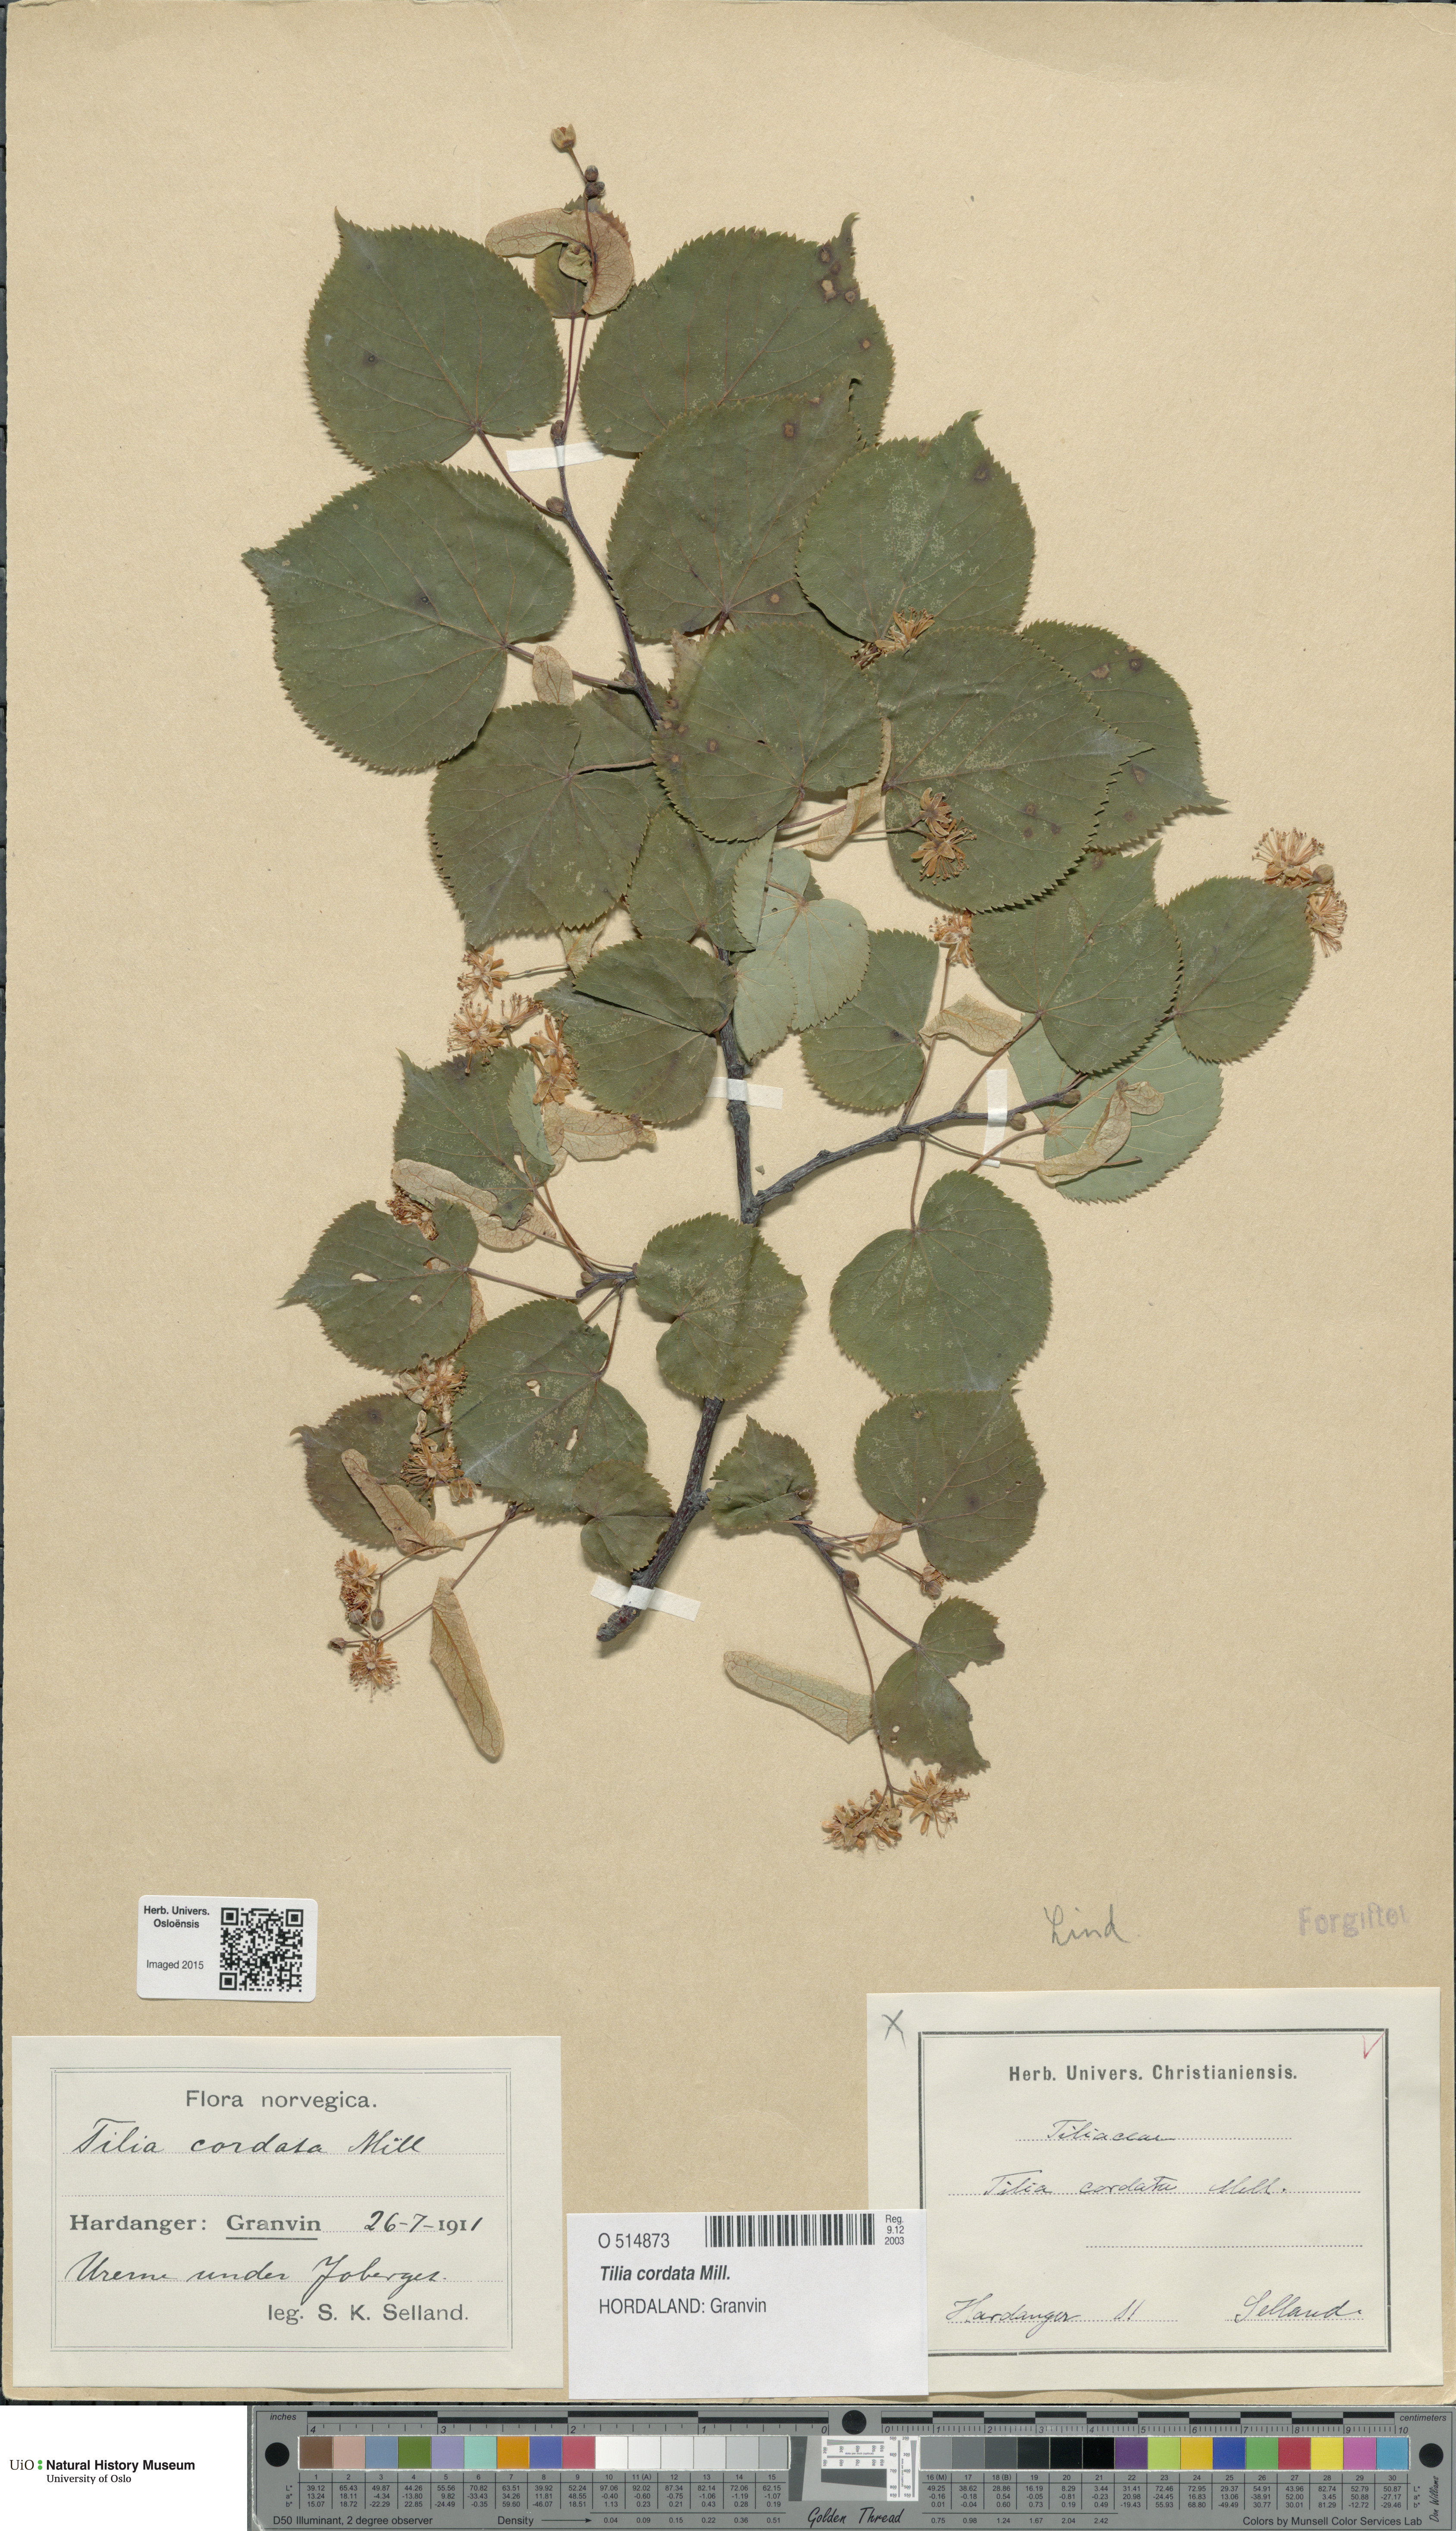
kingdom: Plantae
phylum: Tracheophyta
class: Magnoliopsida
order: Malvales
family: Malvaceae
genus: Tilia
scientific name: Tilia cordata
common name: Small-leaved lime
